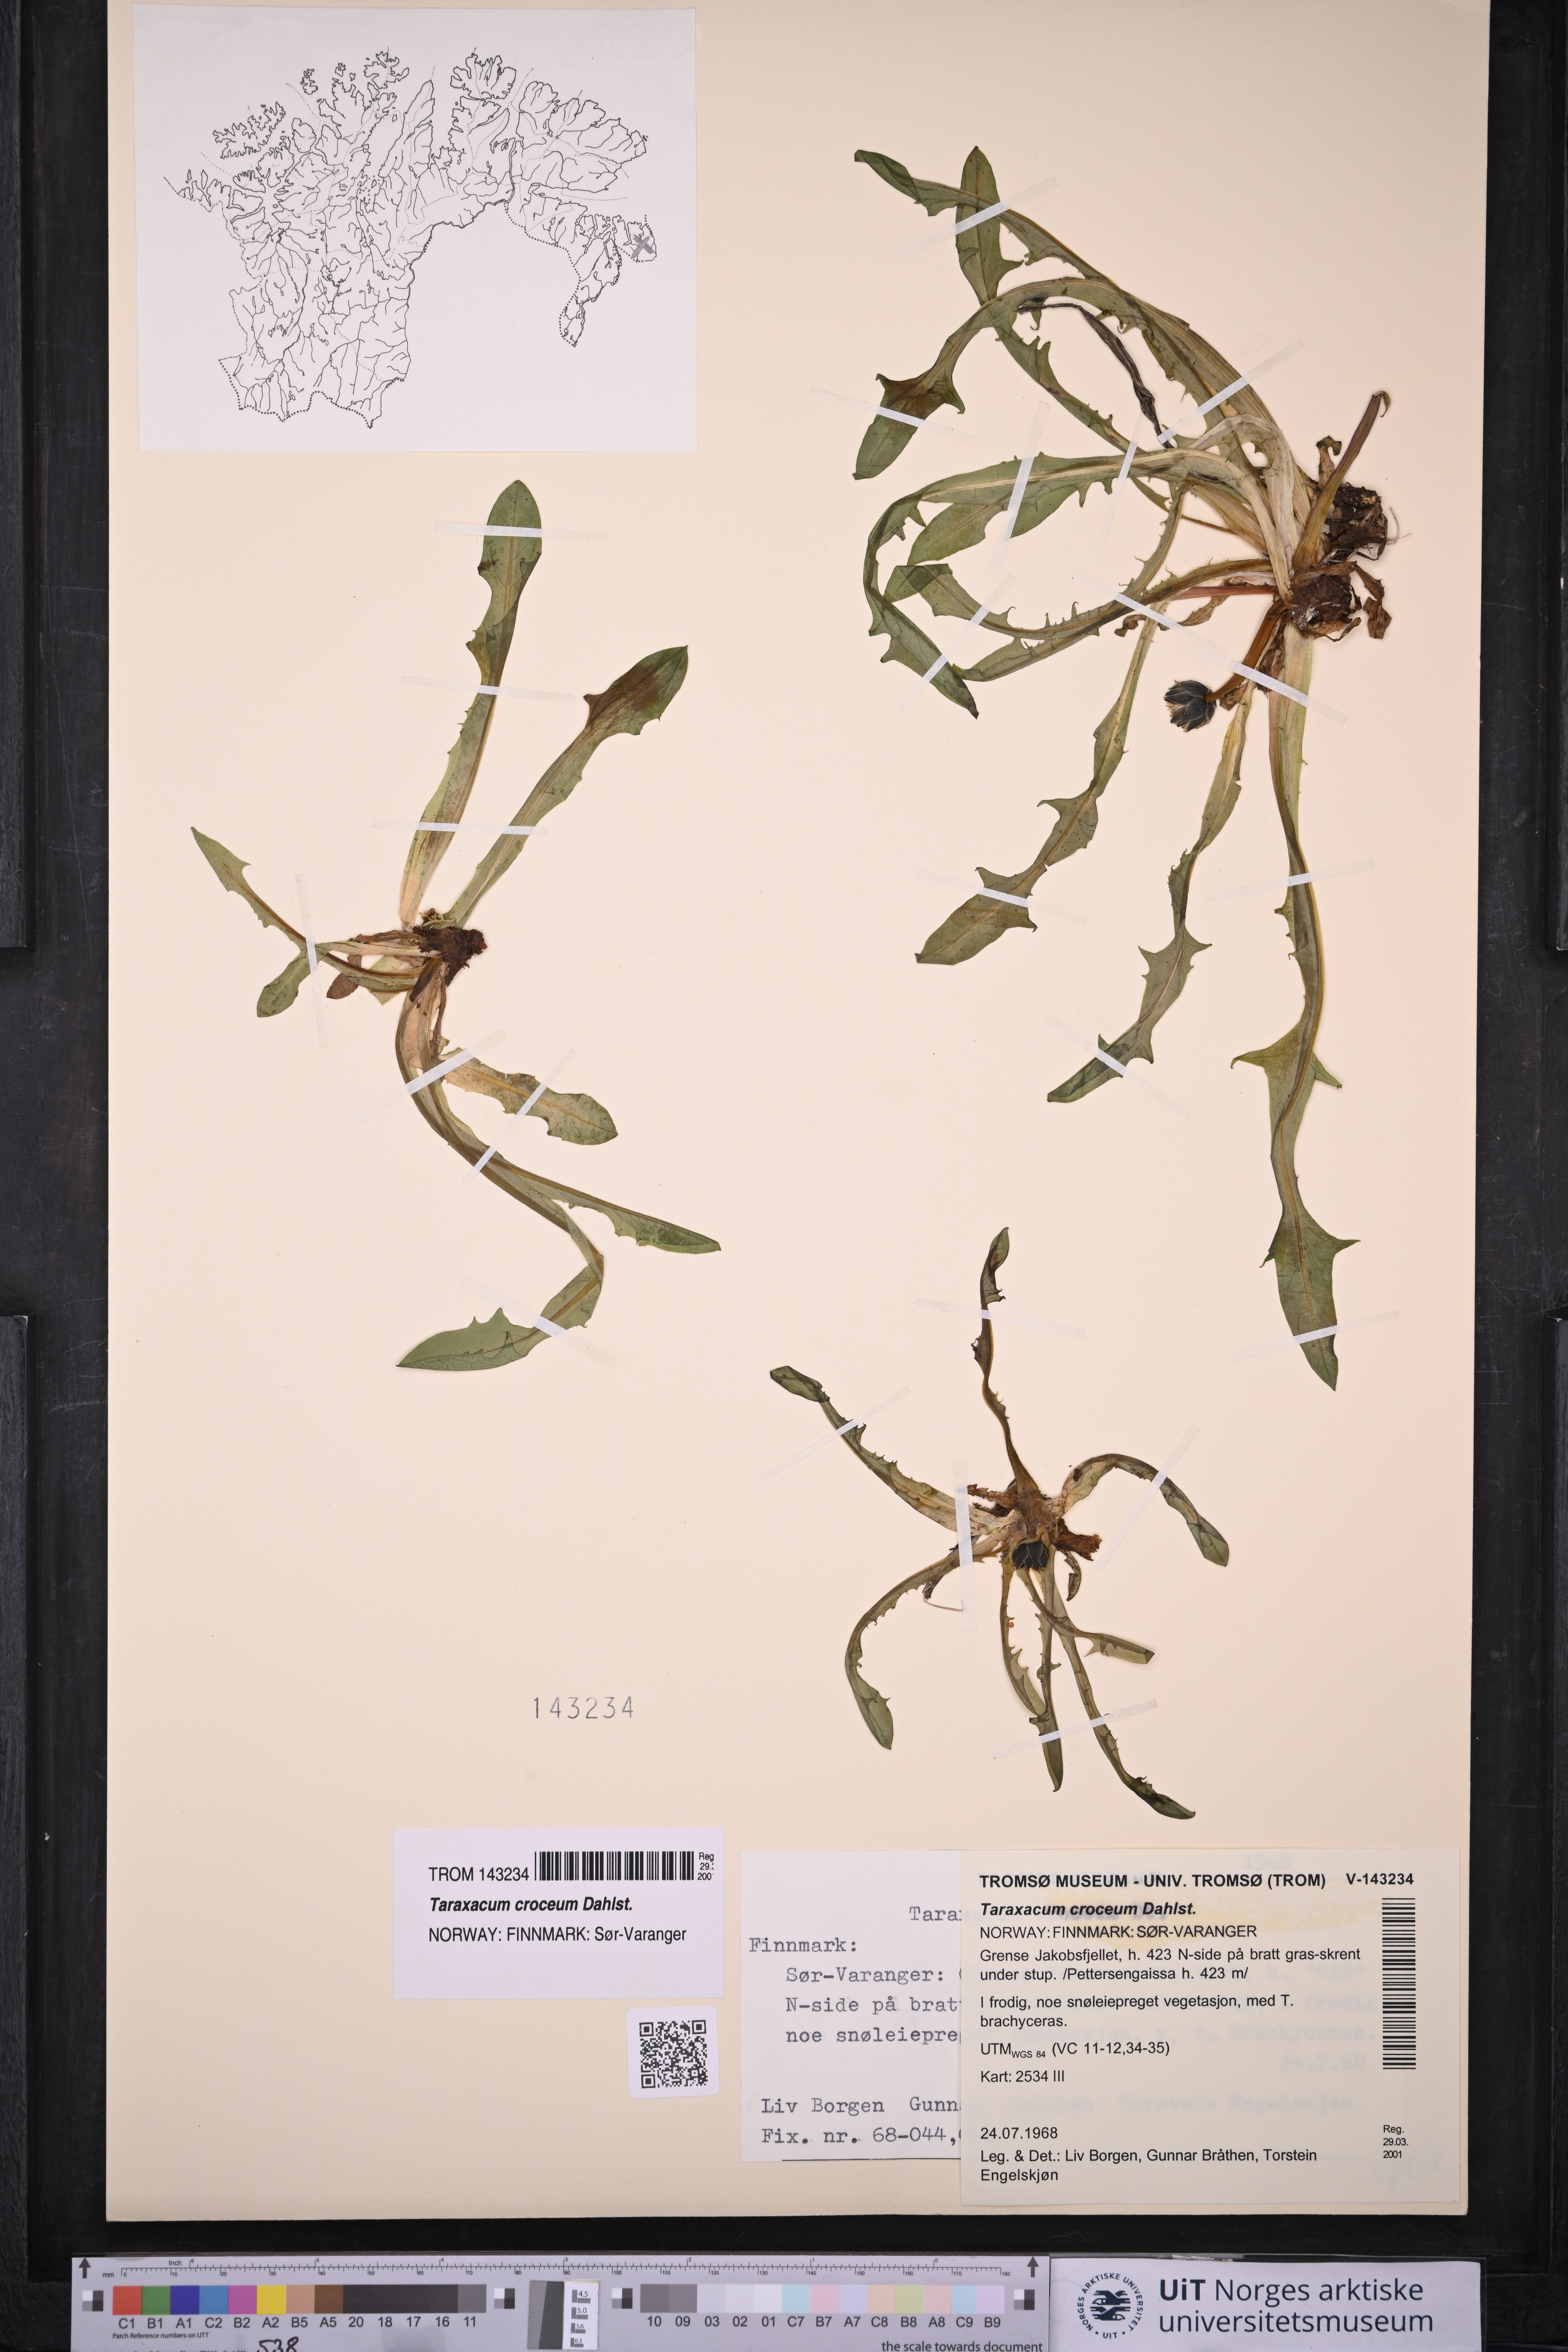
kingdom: Plantae
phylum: Tracheophyta
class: Magnoliopsida
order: Asterales
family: Asteraceae
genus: Taraxacum
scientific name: Taraxacum croceum
